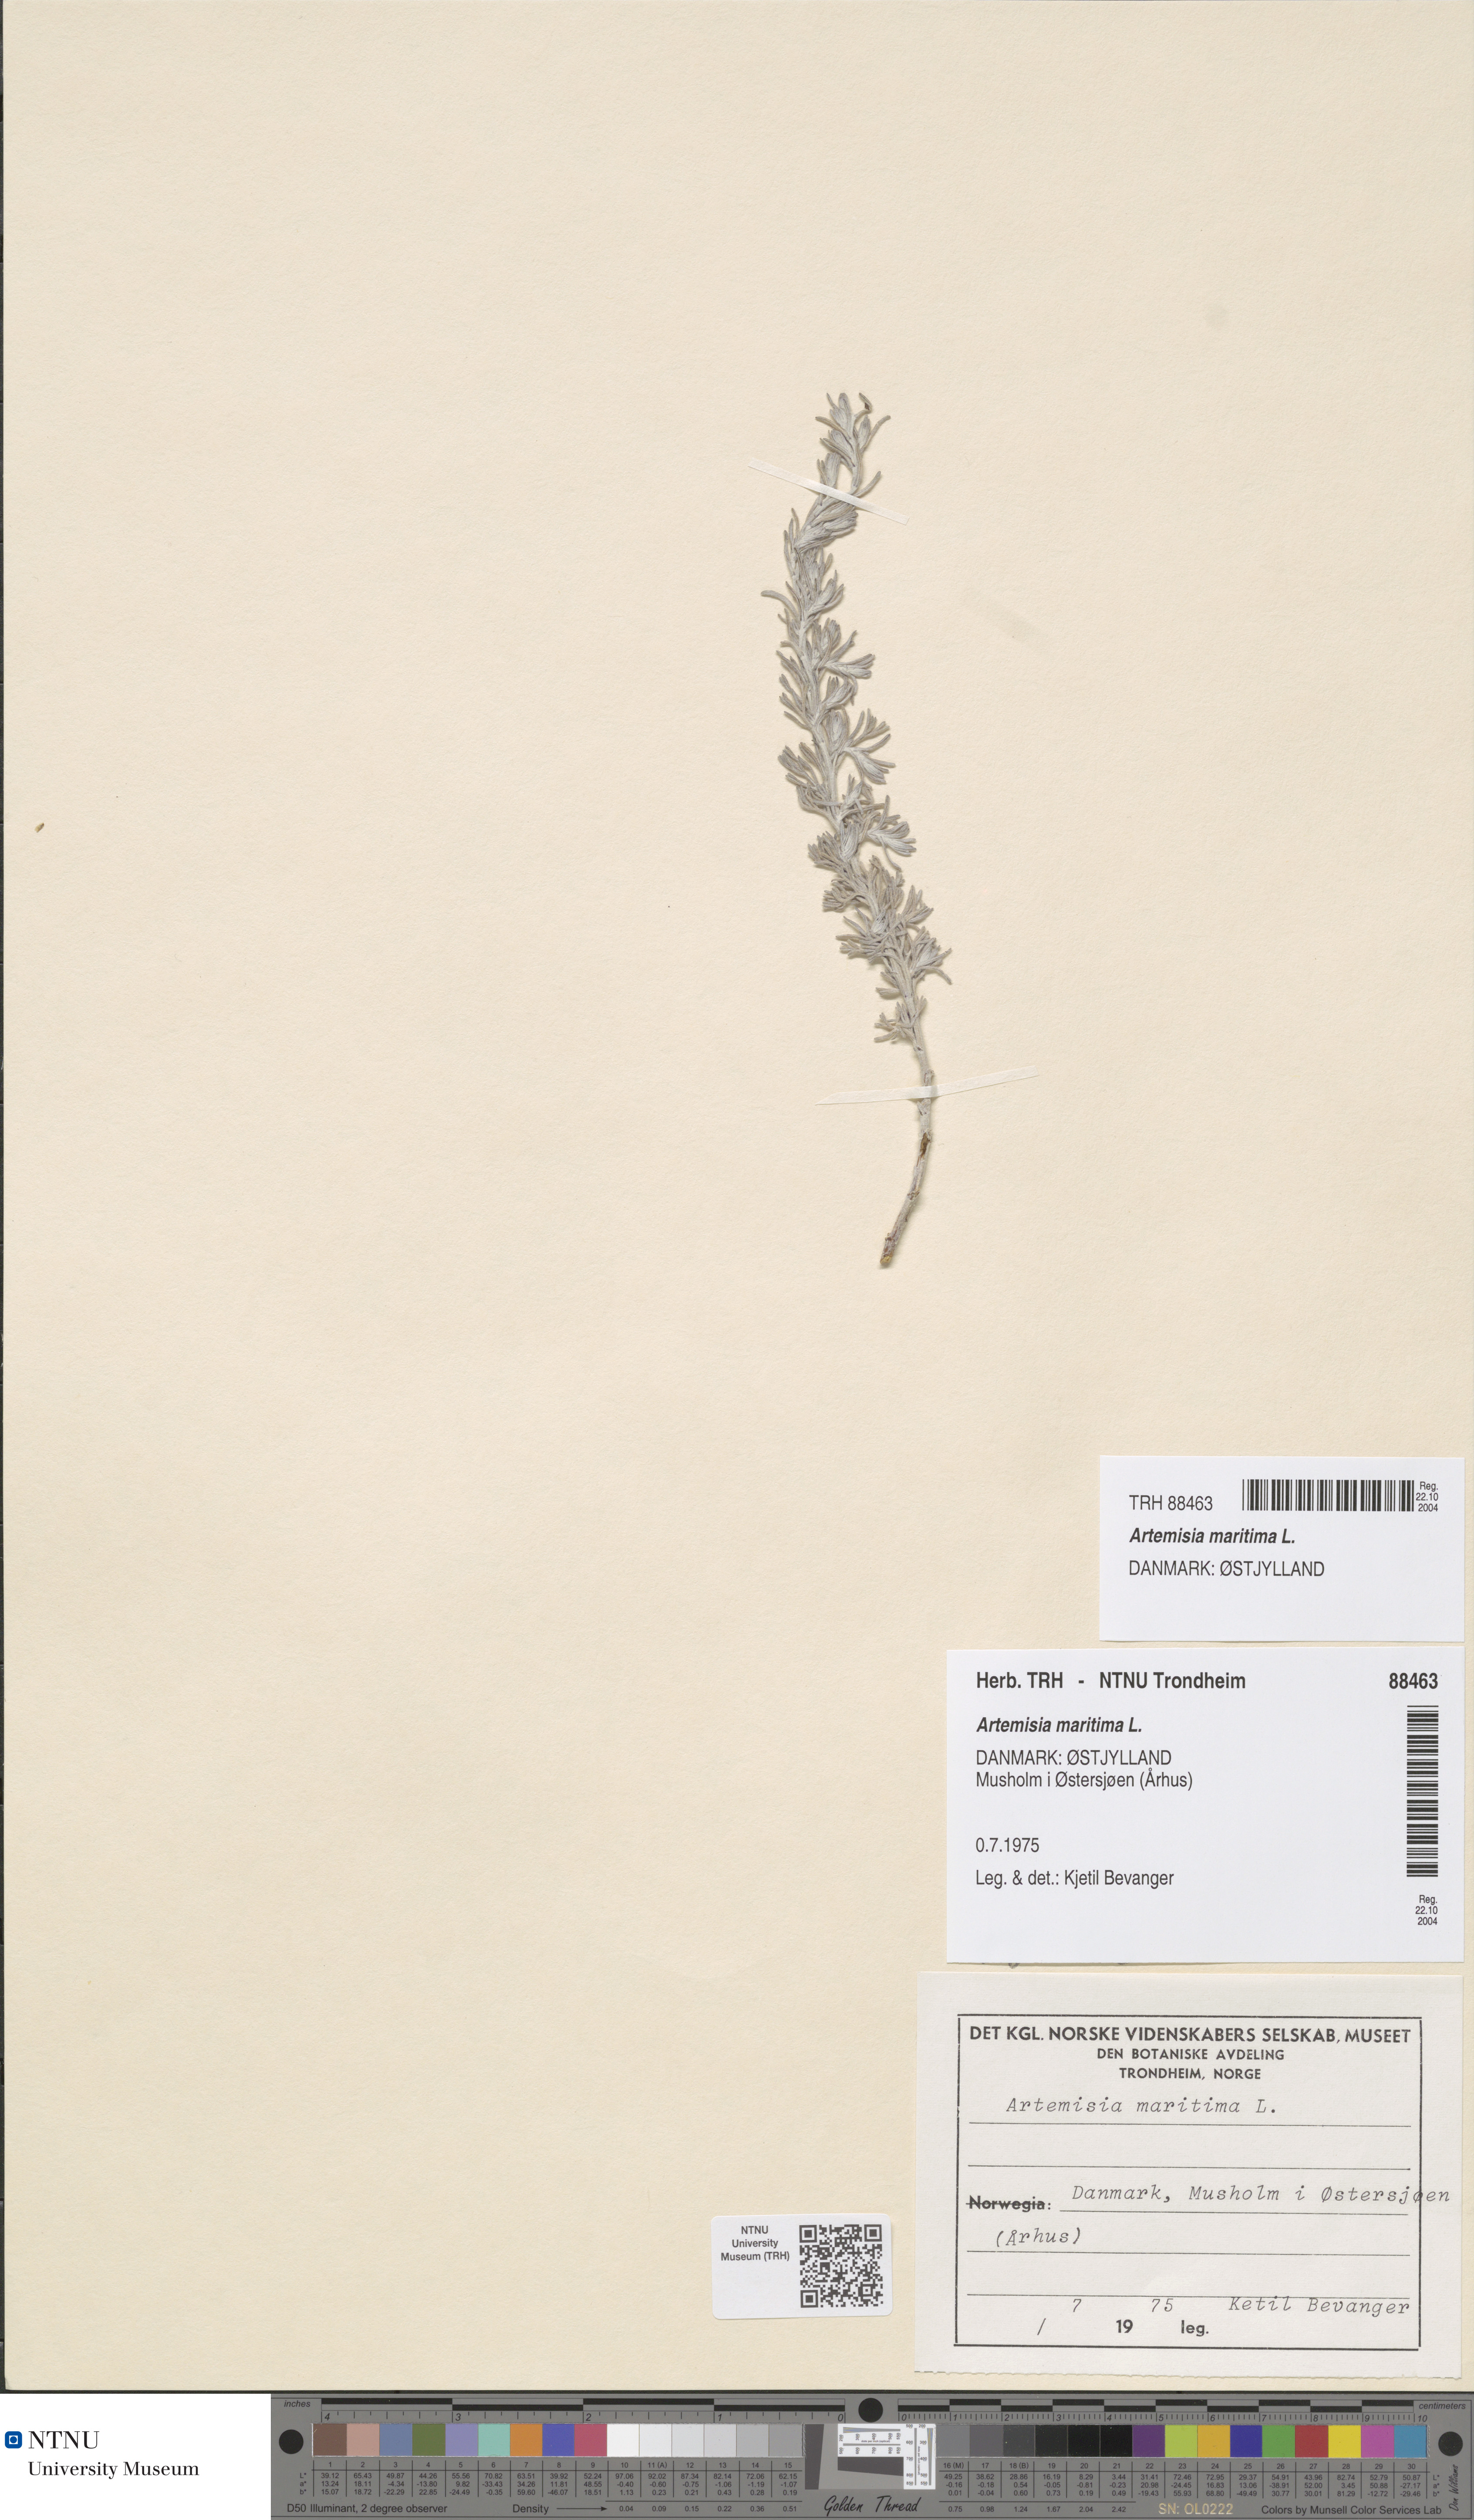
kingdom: Plantae
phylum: Tracheophyta
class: Magnoliopsida
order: Asterales
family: Asteraceae
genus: Artemisia
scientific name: Artemisia maritima
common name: Wormseed
